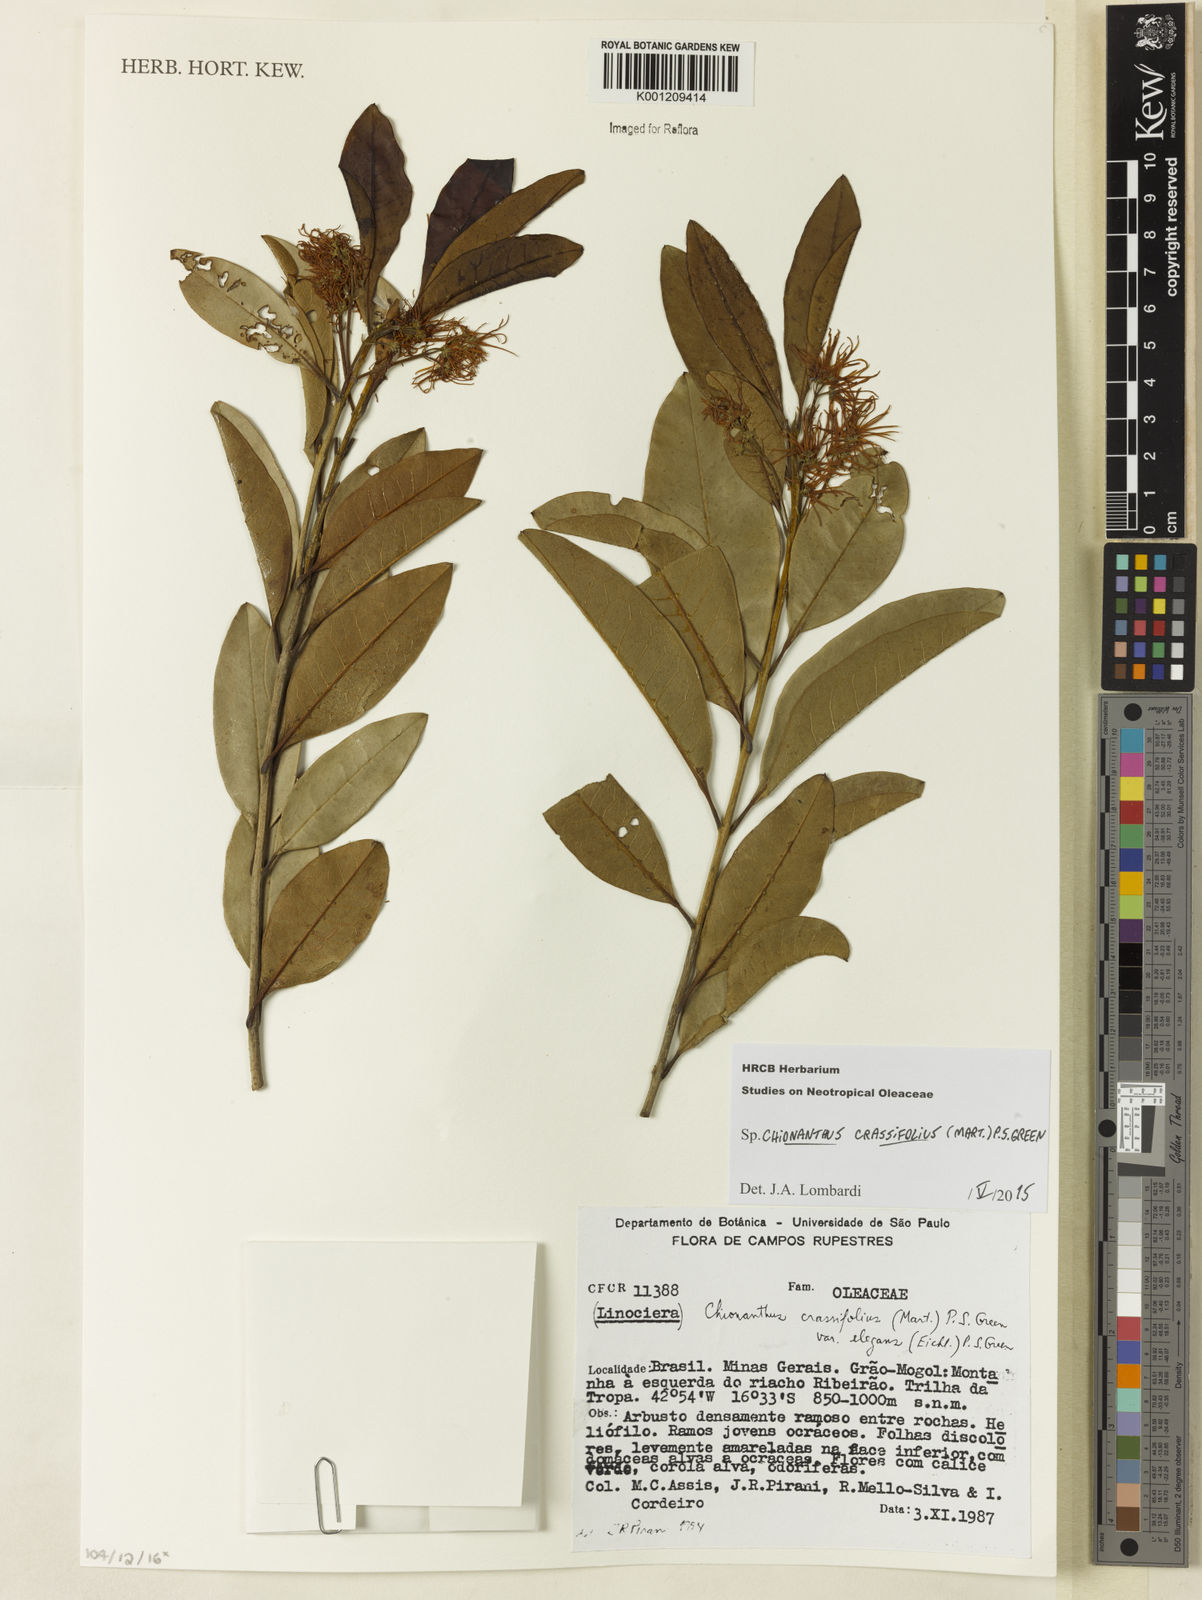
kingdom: Plantae
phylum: Tracheophyta
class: Magnoliopsida
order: Lamiales
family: Oleaceae
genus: Chionanthus
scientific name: Chionanthus crassifolius
